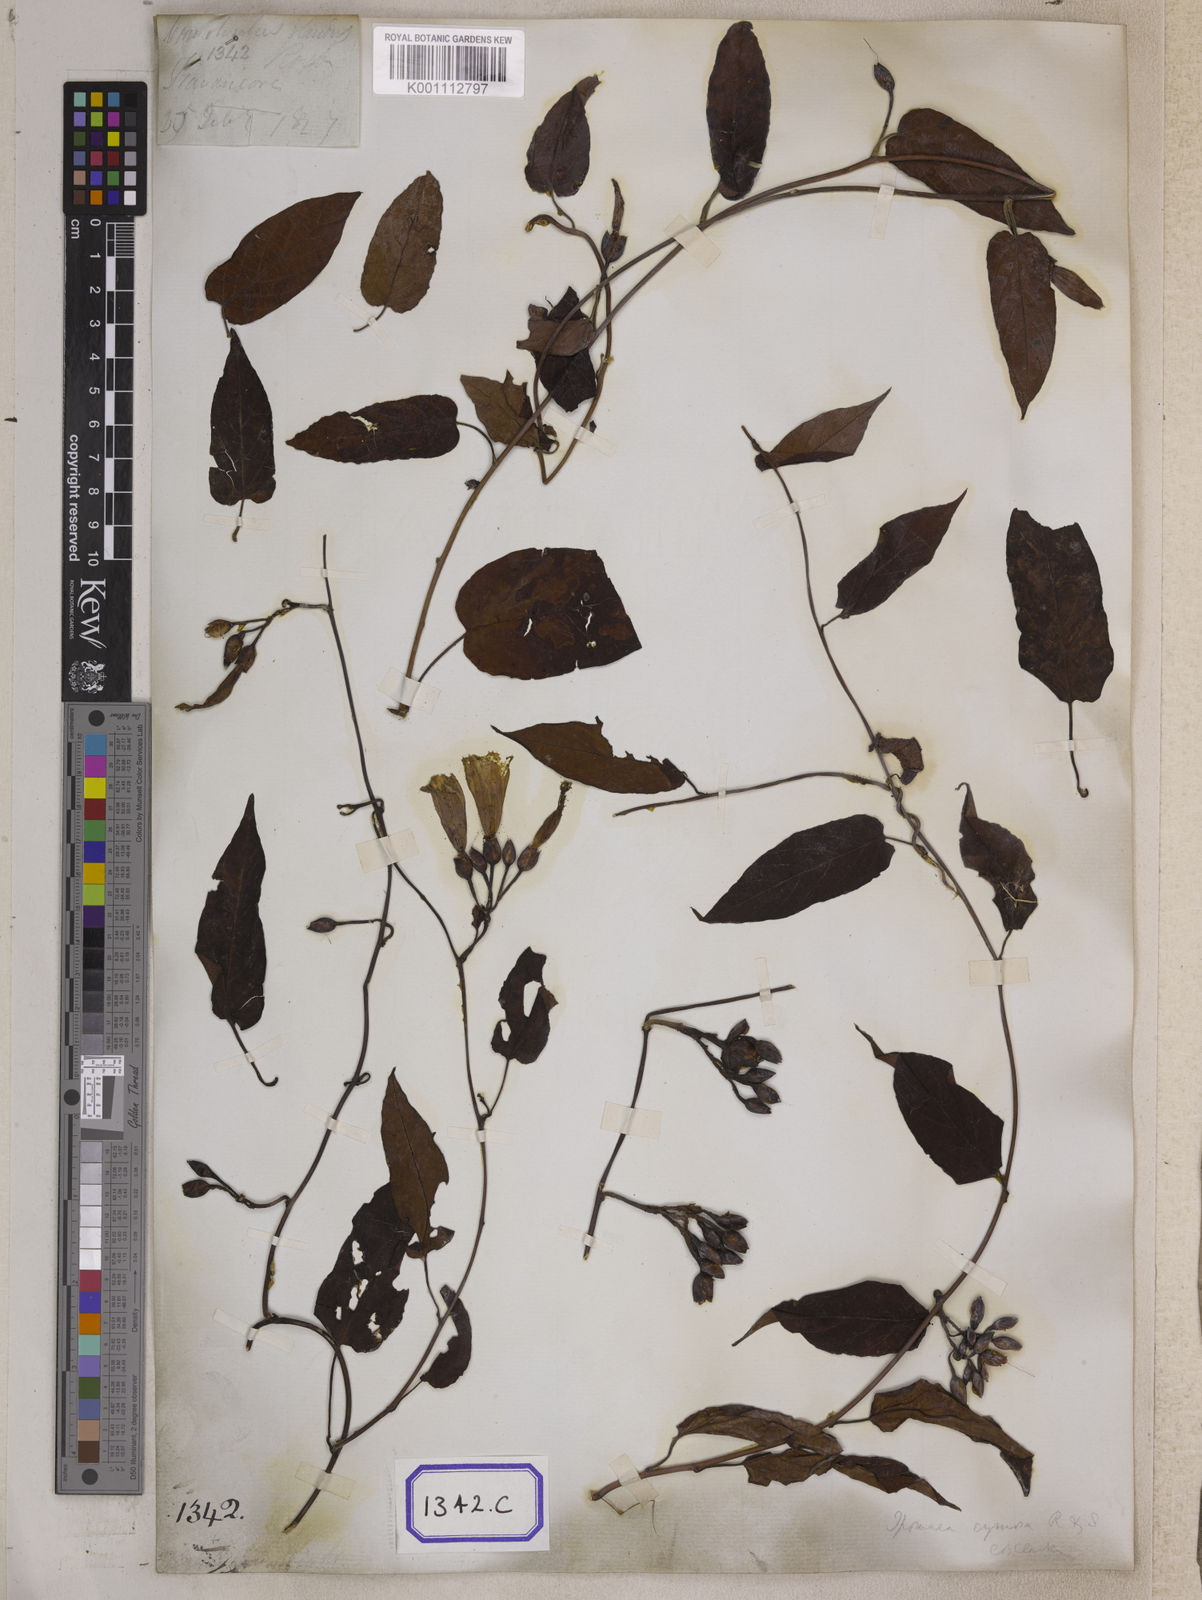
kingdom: Plantae
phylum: Tracheophyta
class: Magnoliopsida
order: Solanales
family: Convolvulaceae
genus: Camonea
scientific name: Camonea umbellata
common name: Hogvine
